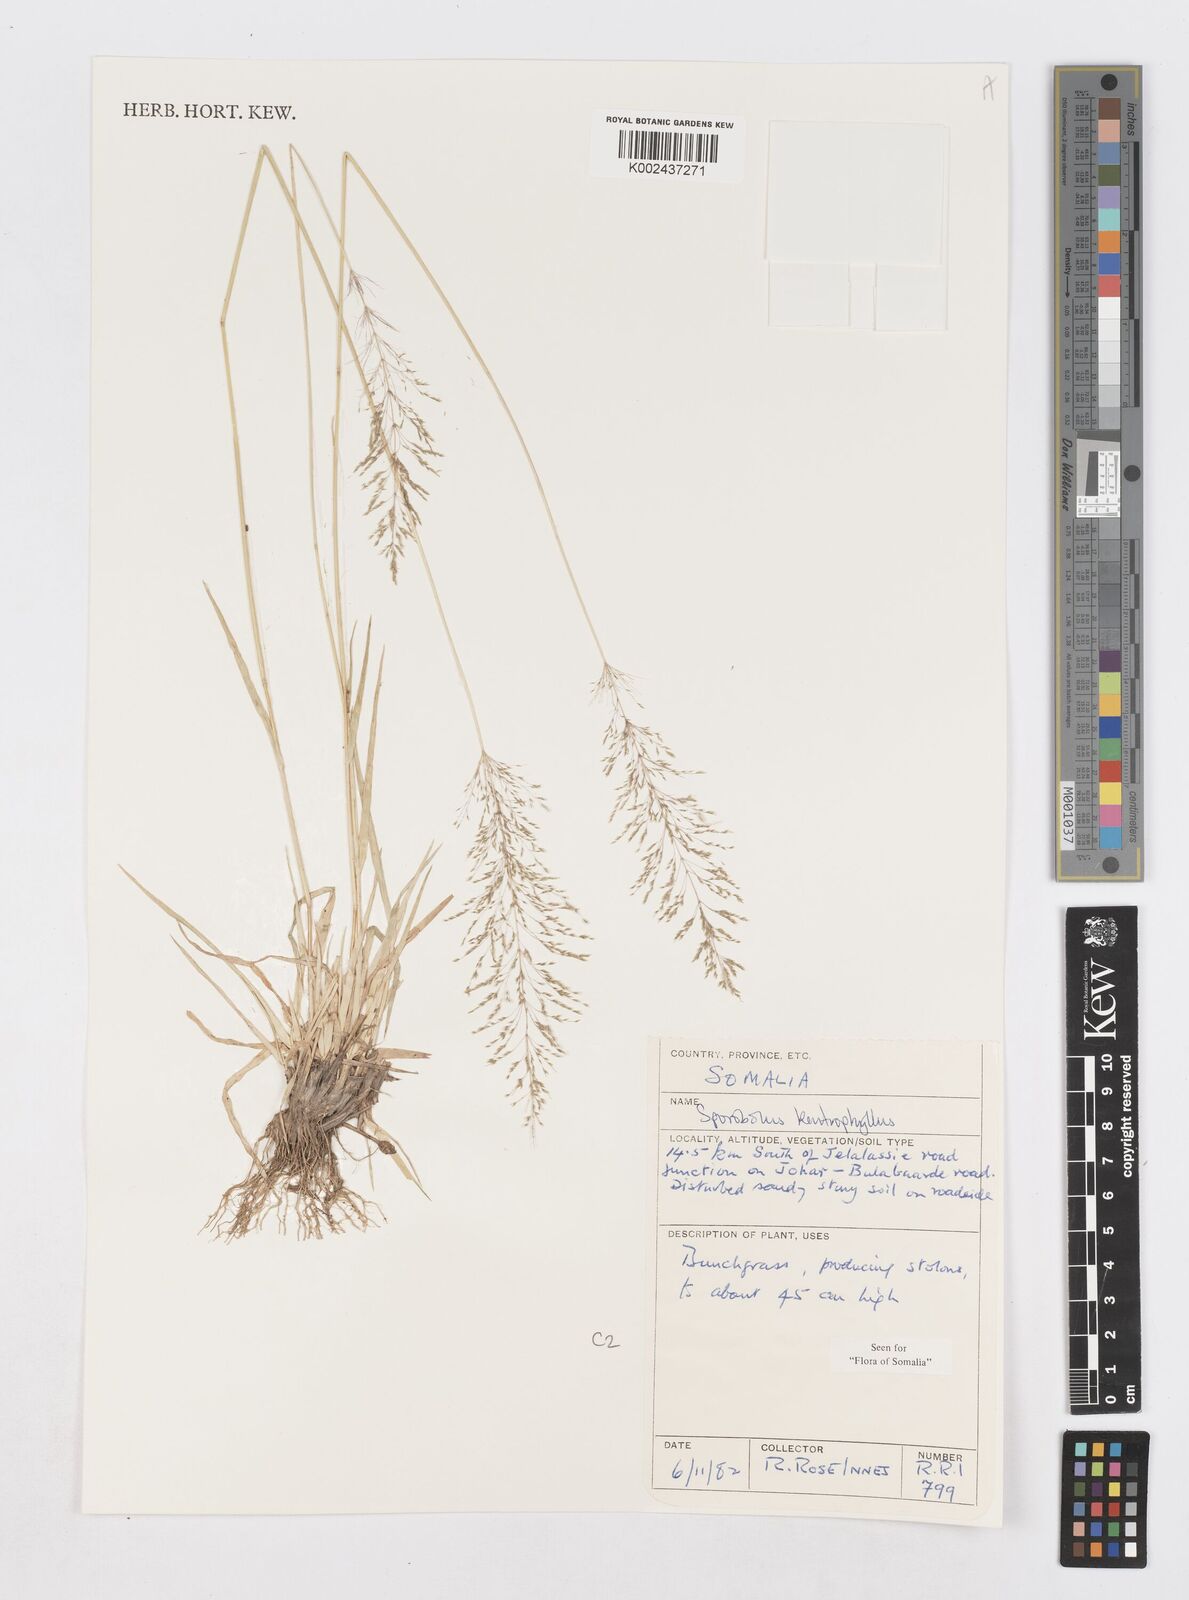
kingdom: Plantae
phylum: Tracheophyta
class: Liliopsida
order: Poales
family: Poaceae
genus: Sporobolus
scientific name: Sporobolus ioclados
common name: Pan dropseed
